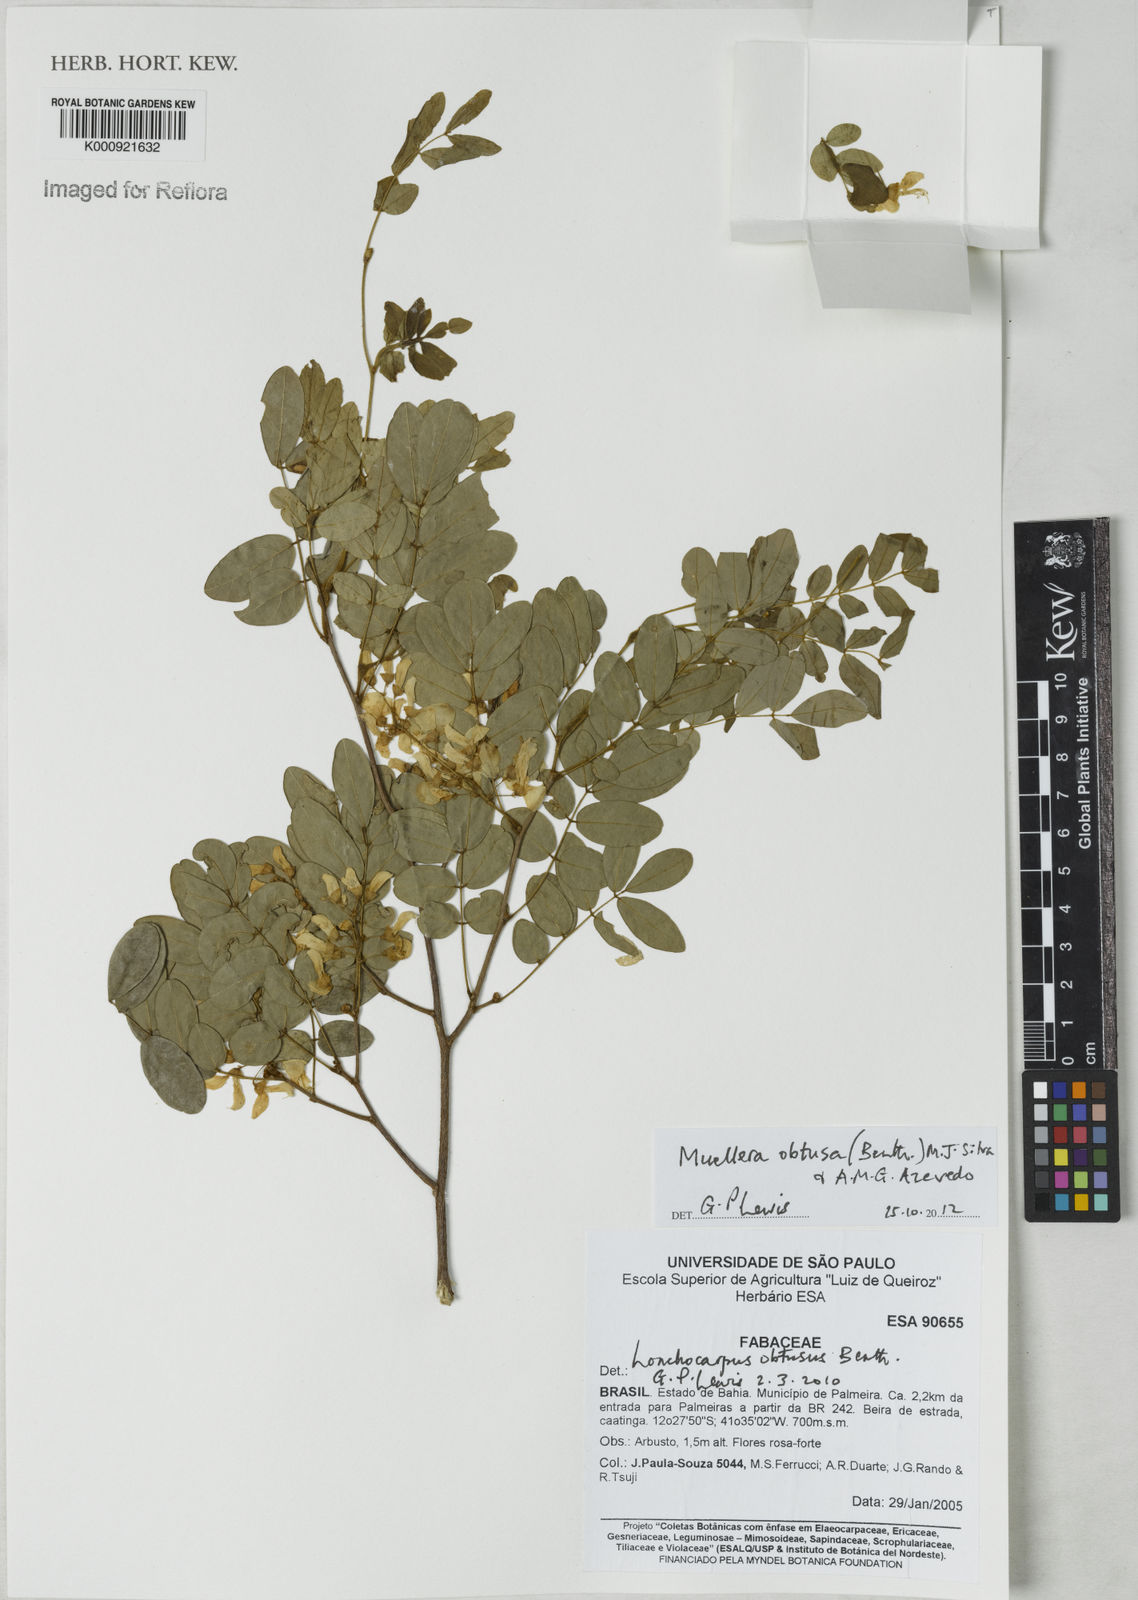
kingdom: Plantae
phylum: Tracheophyta
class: Magnoliopsida
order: Fabales
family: Fabaceae
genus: Muellera
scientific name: Muellera obtusa
